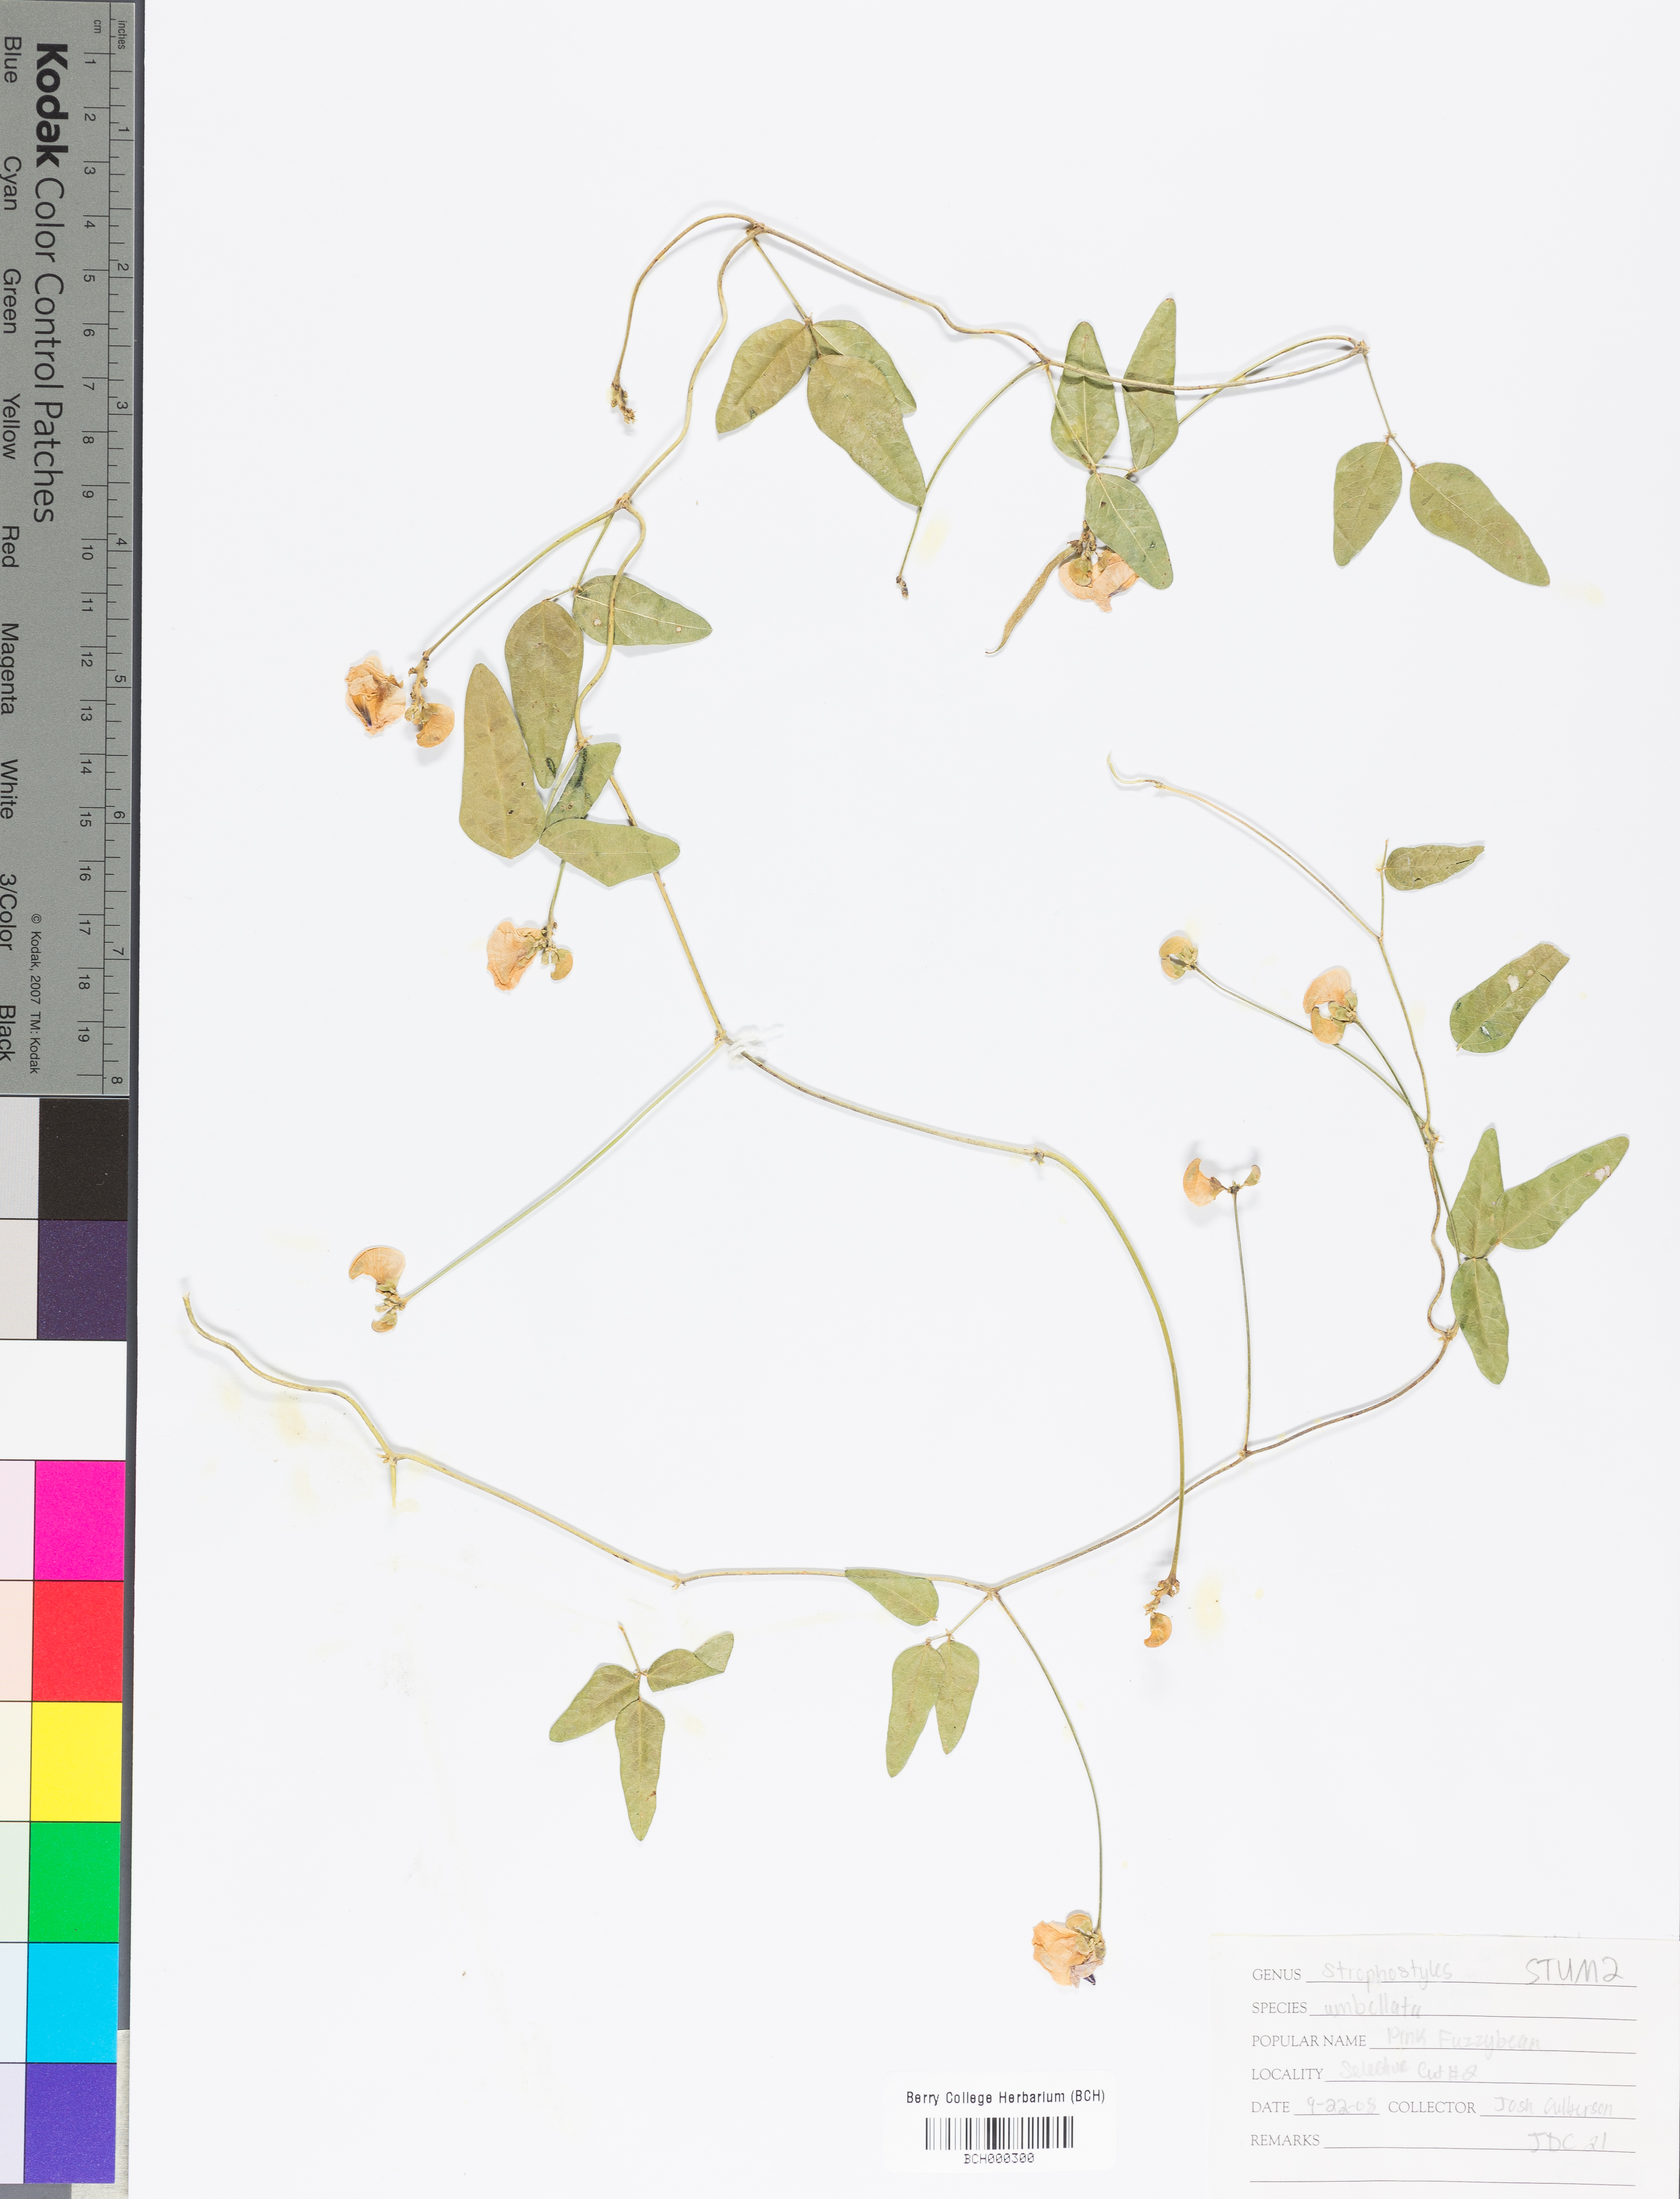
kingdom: Plantae
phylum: Tracheophyta
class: Magnoliopsida
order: Fabales
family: Fabaceae
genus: Strophostyles
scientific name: Strophostyles umbellata
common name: Perennial wild bean
